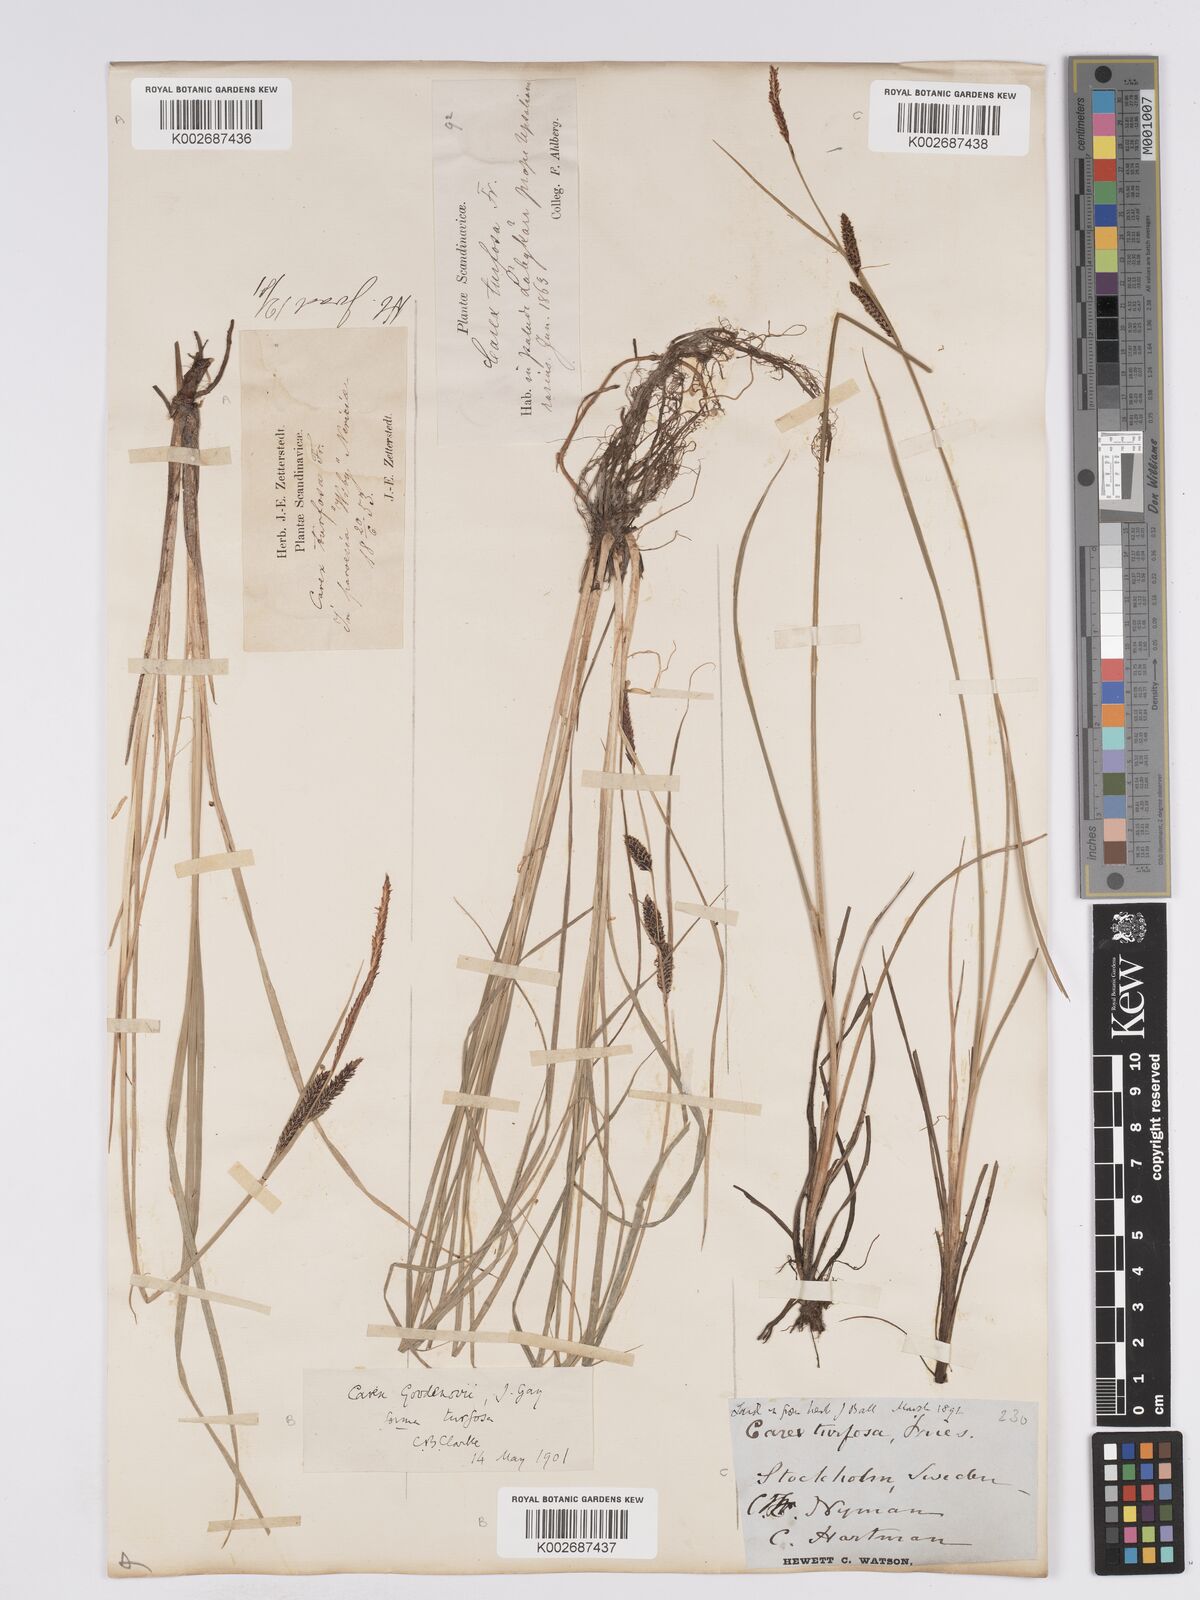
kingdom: Plantae
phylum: Tracheophyta
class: Liliopsida
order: Poales
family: Cyperaceae
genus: Carex
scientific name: Carex nigra
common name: Common sedge
